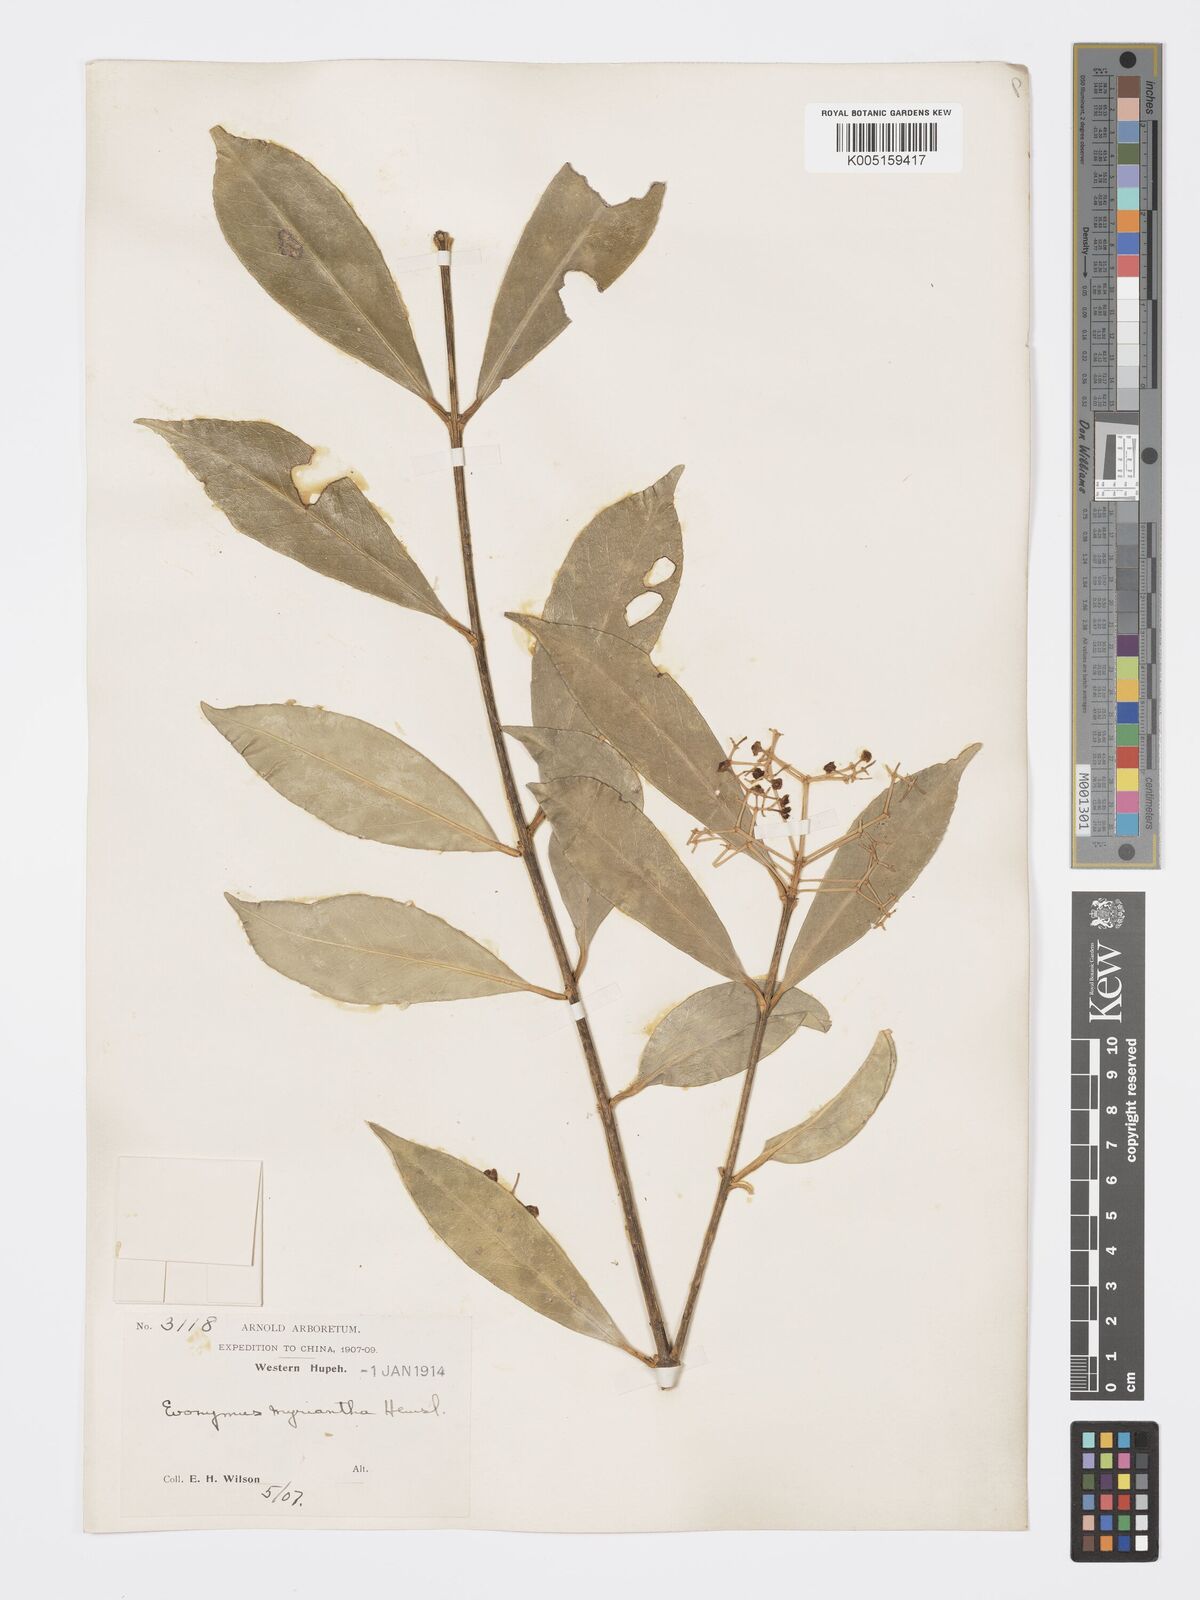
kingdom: Plantae
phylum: Tracheophyta
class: Magnoliopsida
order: Celastrales
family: Celastraceae
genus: Euonymus
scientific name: Euonymus myrianthus
